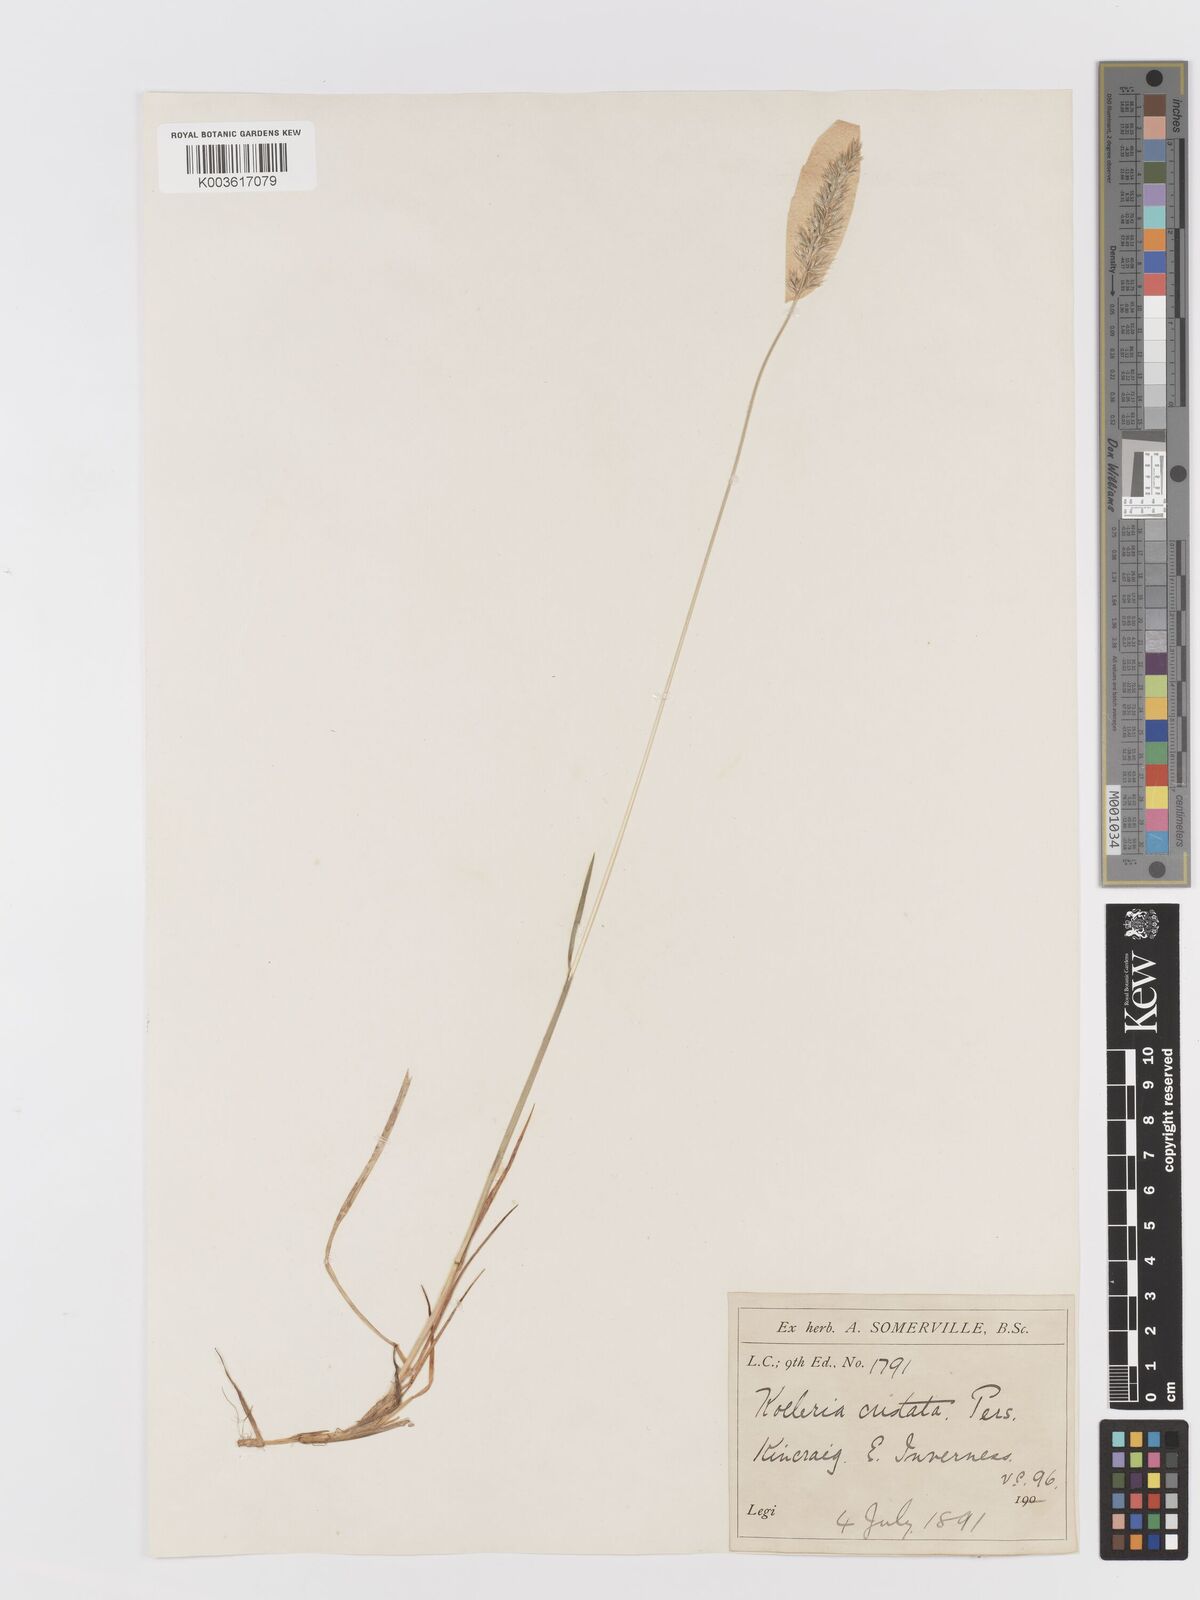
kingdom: Plantae
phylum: Tracheophyta
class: Liliopsida
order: Poales
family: Poaceae
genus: Koeleria
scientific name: Koeleria macrantha
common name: Crested hair-grass
